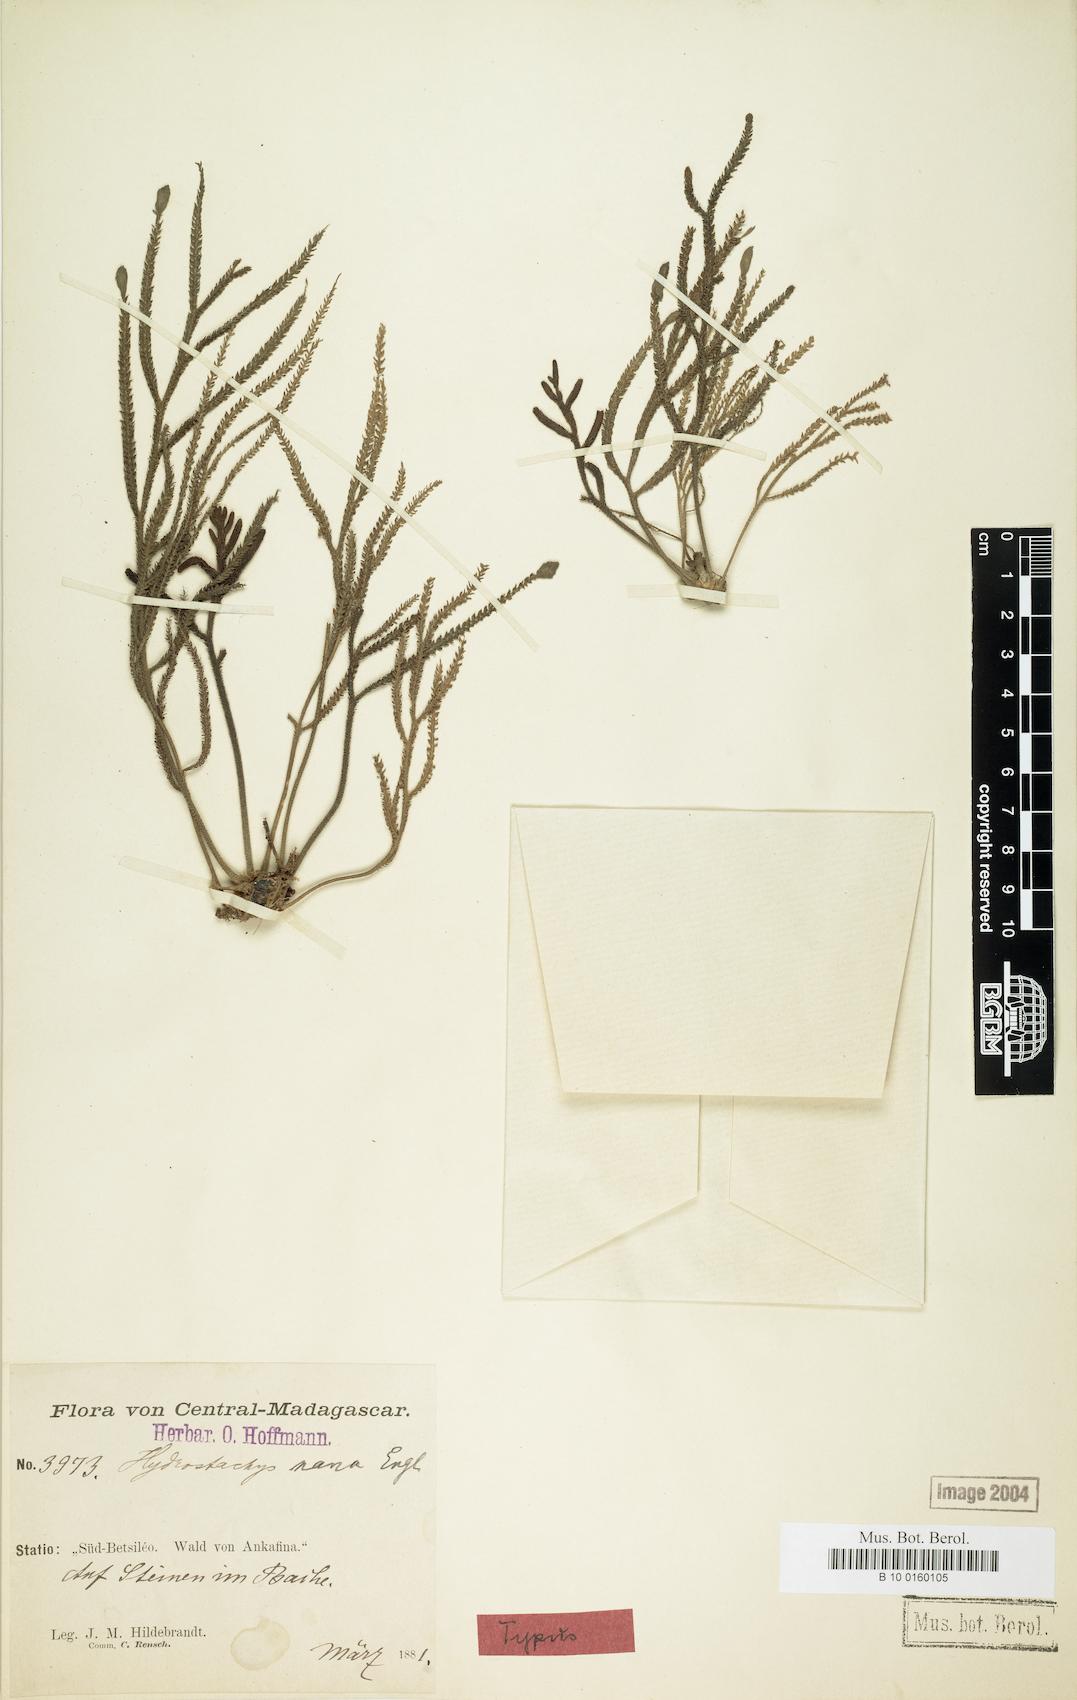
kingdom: Plantae
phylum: Tracheophyta
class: Magnoliopsida
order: Cornales
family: Hydrostachyaceae
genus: Hydrostachys
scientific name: Hydrostachys distichophylla
